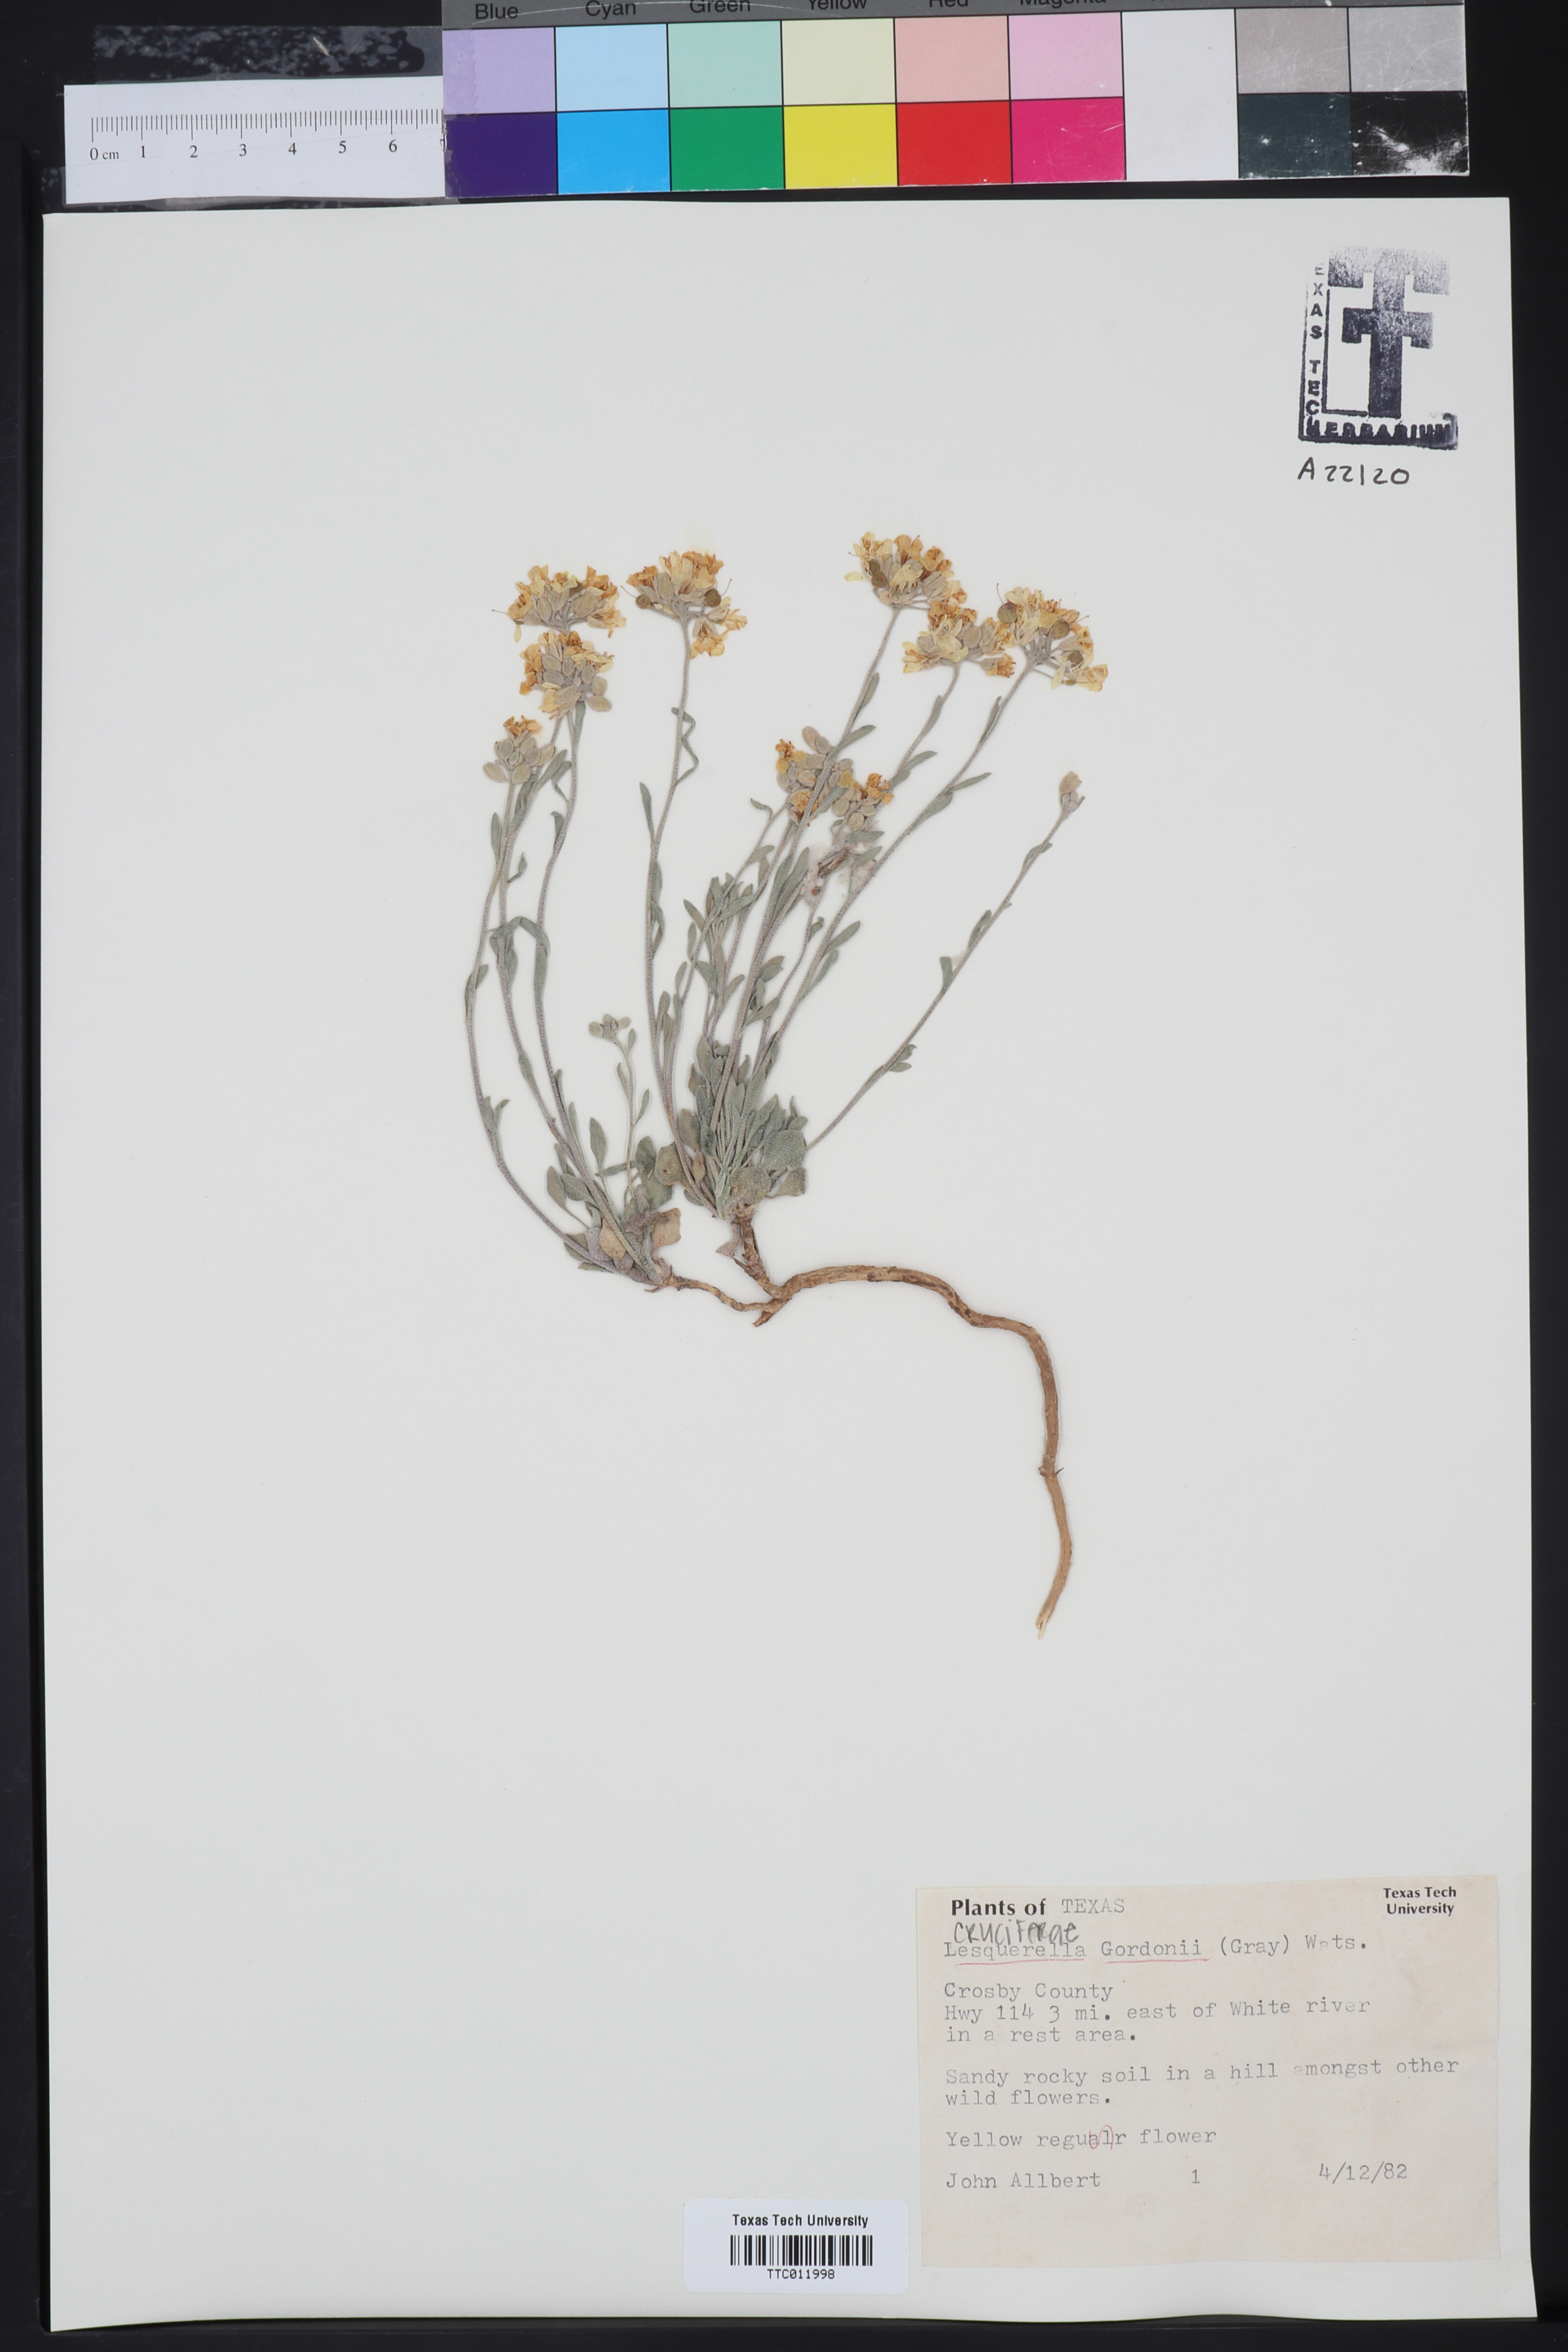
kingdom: Plantae
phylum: Tracheophyta
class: Magnoliopsida
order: Brassicales
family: Brassicaceae
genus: Physaria
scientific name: Physaria gordonii
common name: Gordon's bladderpod
